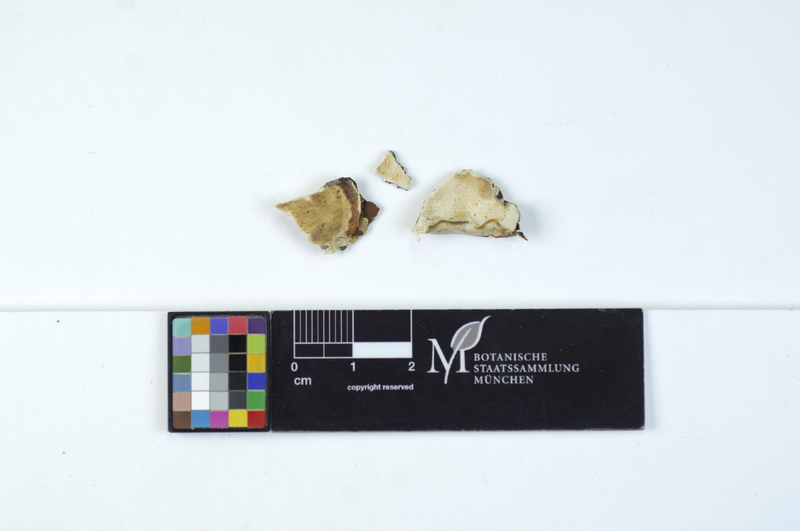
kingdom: Plantae
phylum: Tracheophyta
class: Magnoliopsida
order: Cornales
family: Hydrangeaceae
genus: Deutzia
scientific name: Deutzia
